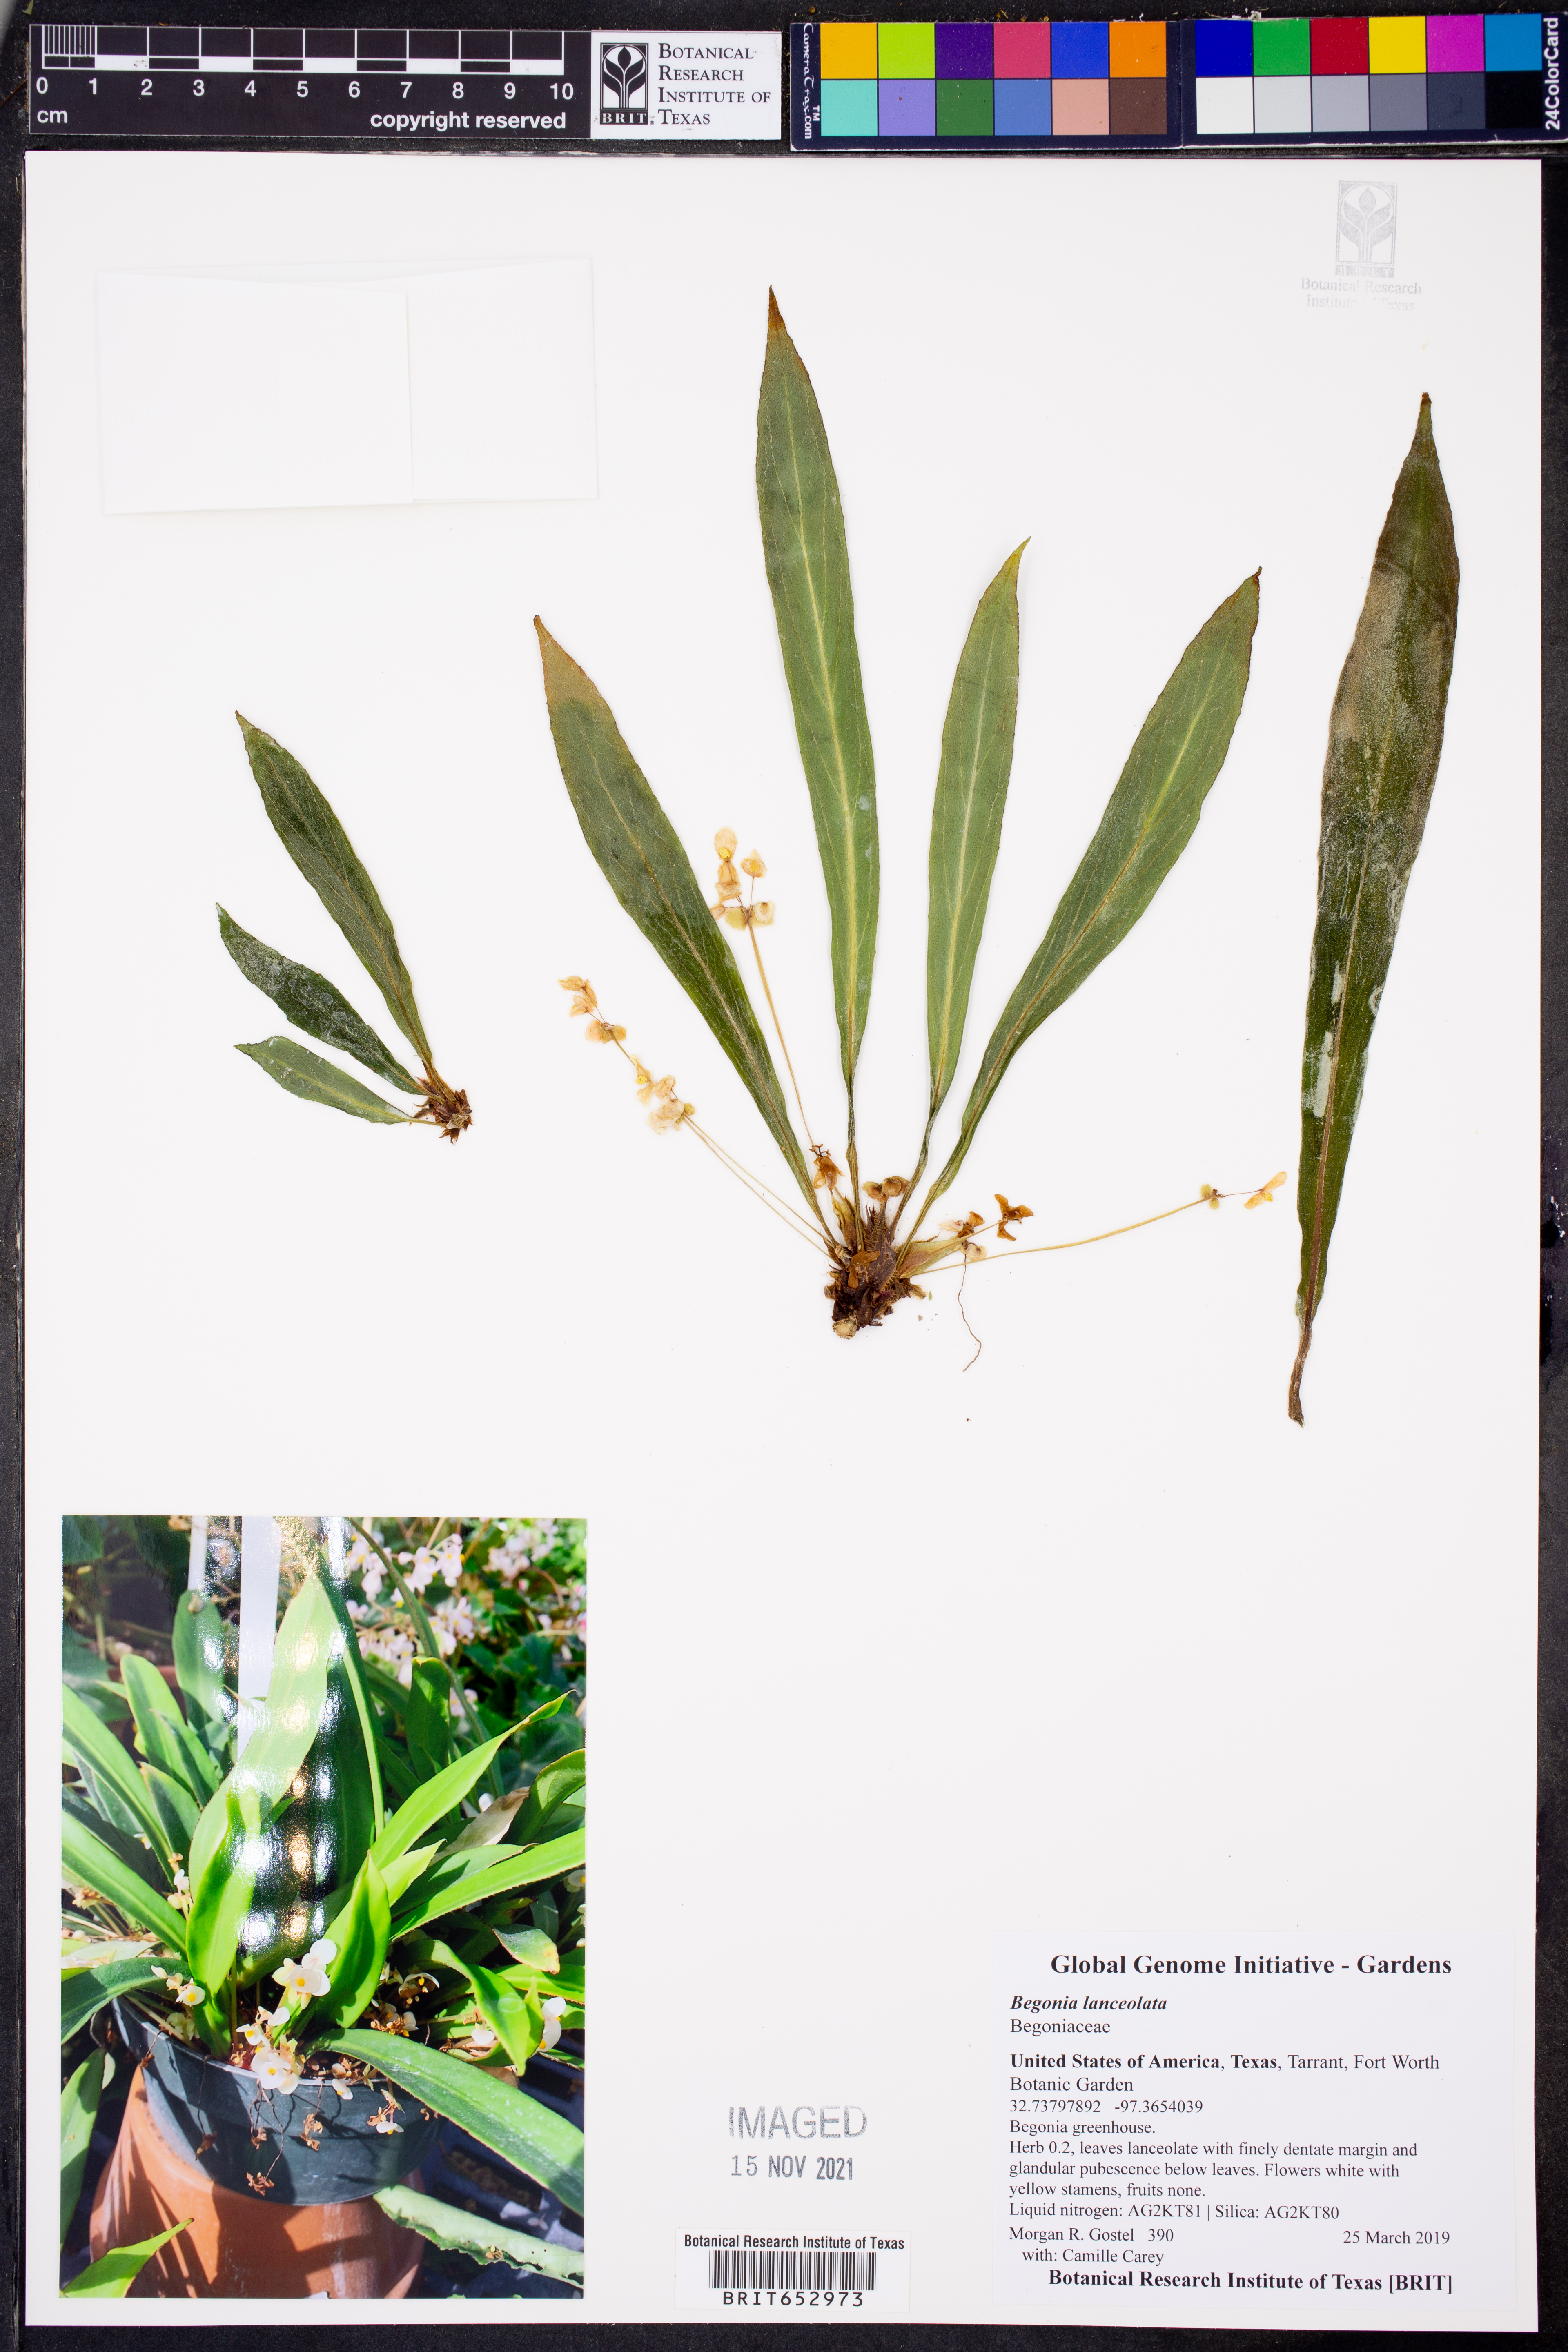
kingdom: Plantae
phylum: Tracheophyta
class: Magnoliopsida
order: Cucurbitales
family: Begoniaceae
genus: Begonia
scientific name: Begonia lanceolata
